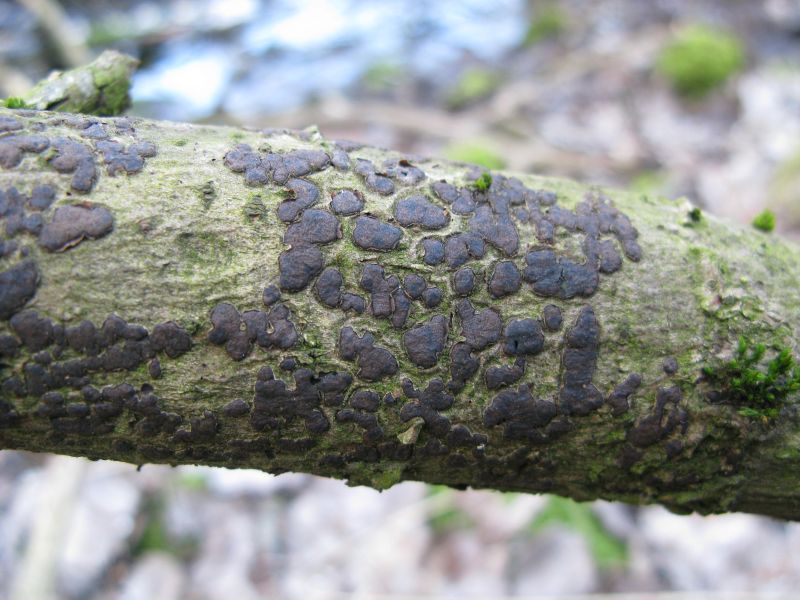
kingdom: Fungi
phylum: Ascomycota
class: Sordariomycetes
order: Xylariales
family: Diatrypaceae
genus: Diatrype
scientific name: Diatrype bullata
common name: pile-kulskorpe
